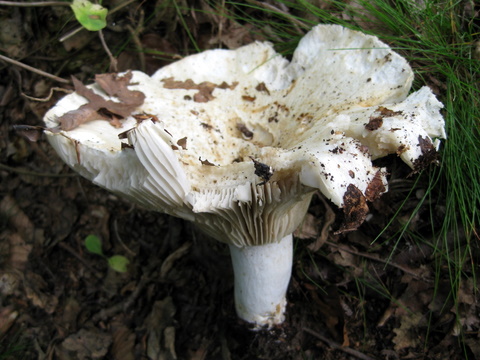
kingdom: Fungi
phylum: Basidiomycota
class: Agaricomycetes
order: Agaricales
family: Tricholomataceae
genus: Aspropaxillus
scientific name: Aspropaxillus giganteus
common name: kæmpe-tragtridderhat
